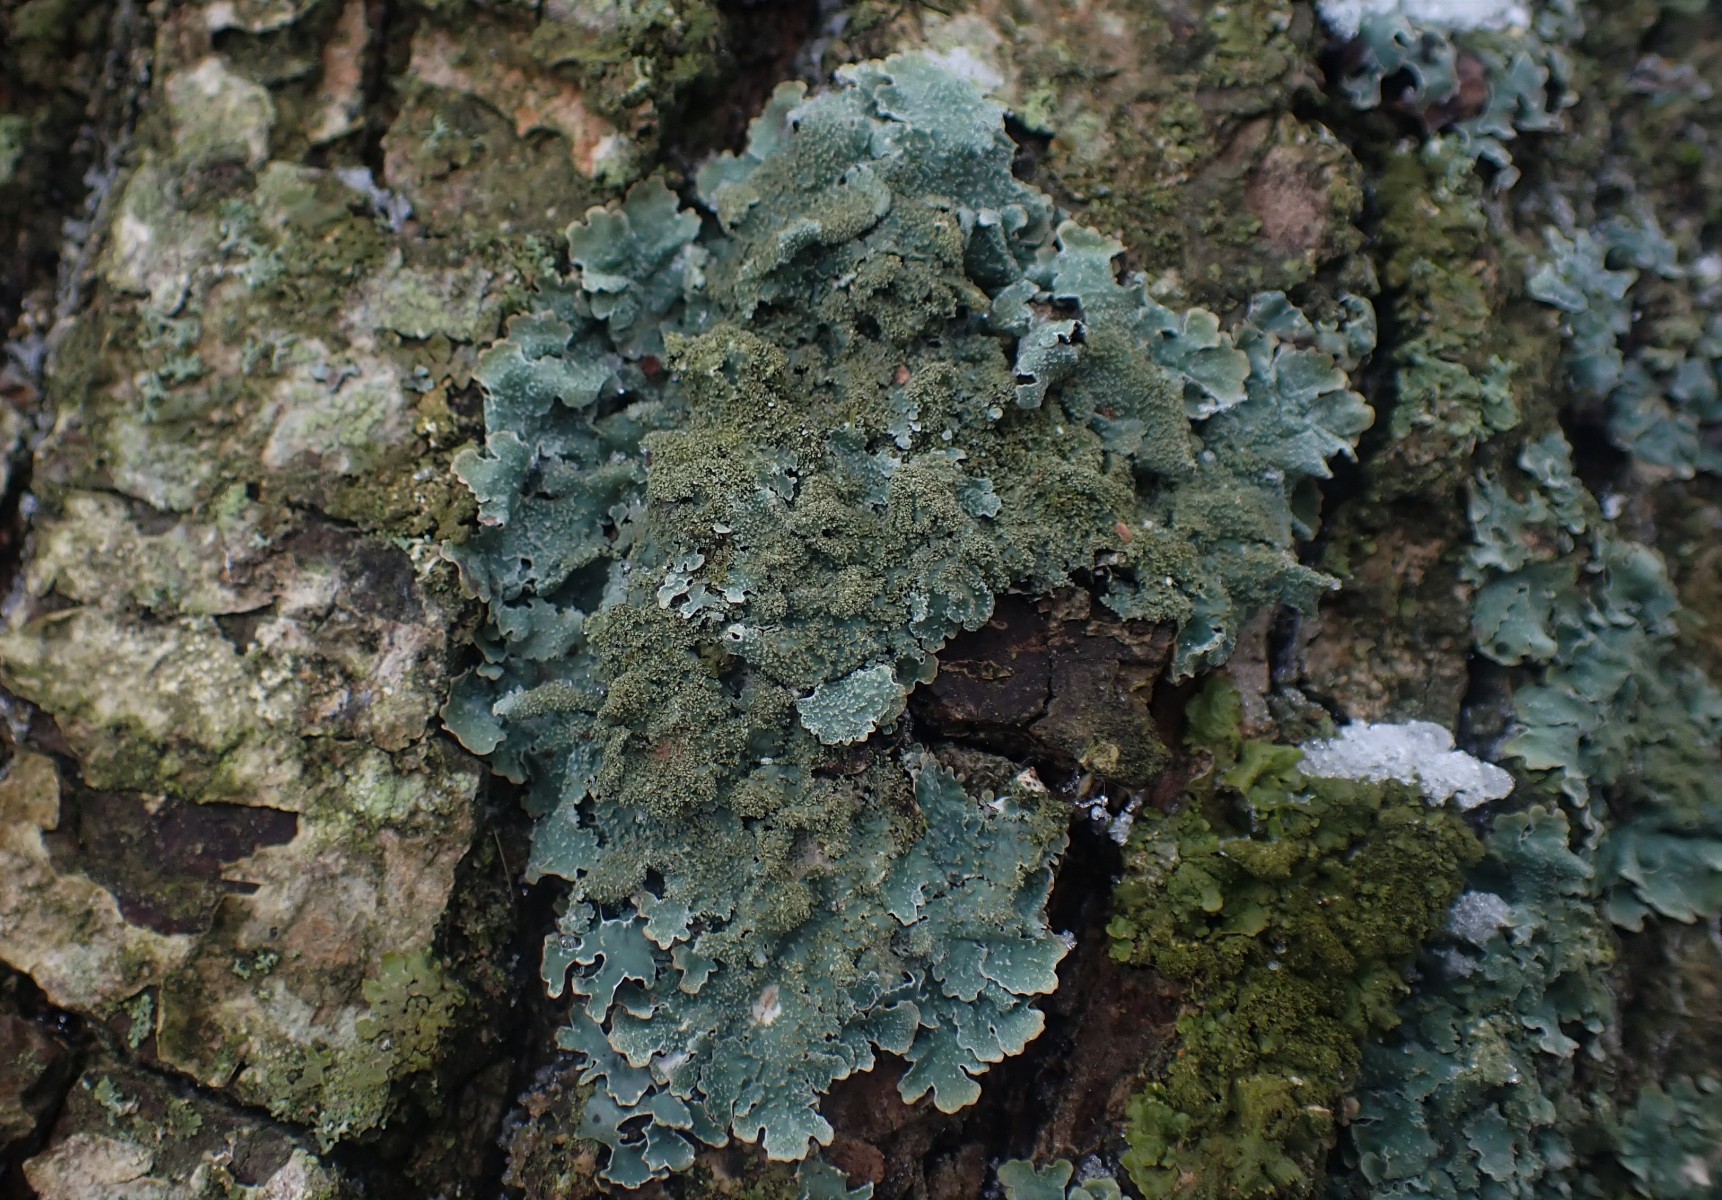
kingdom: Fungi
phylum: Ascomycota
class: Lecanoromycetes
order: Lecanorales
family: Parmeliaceae
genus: Parmelia
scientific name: Parmelia saxatilis
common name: farve-skållav
